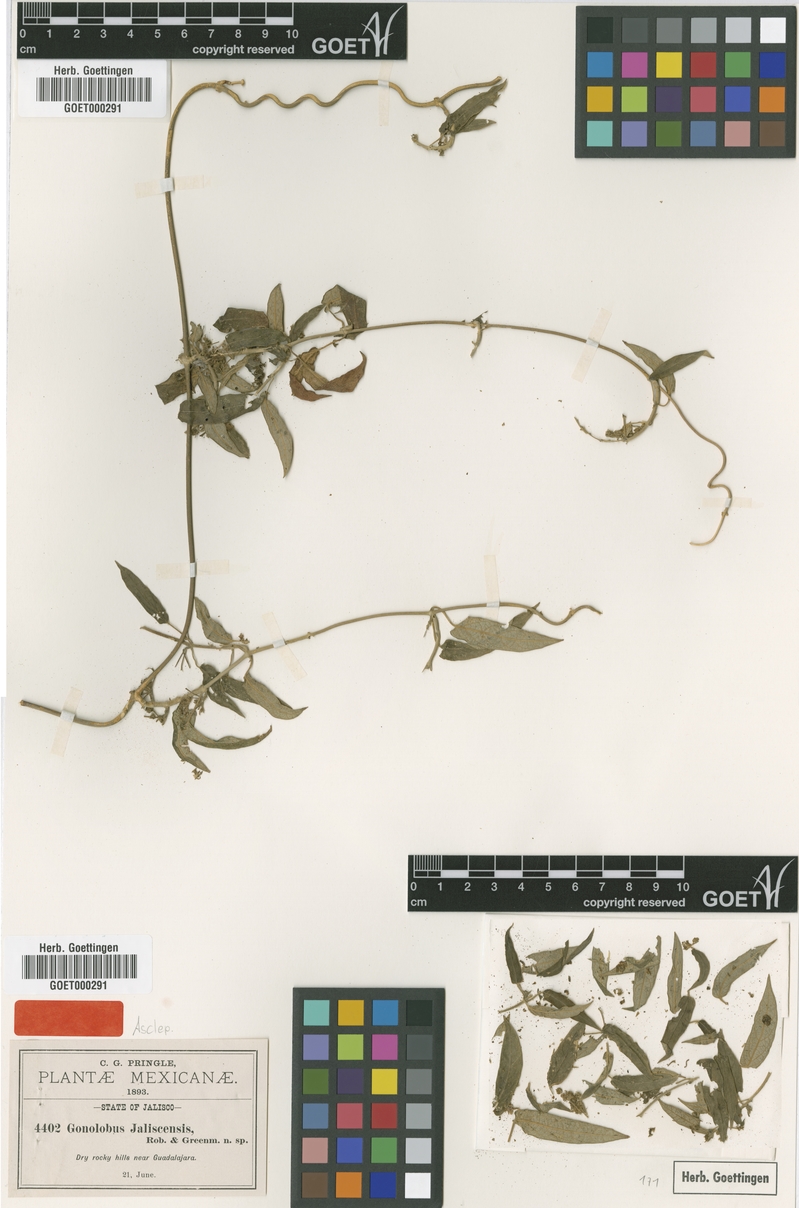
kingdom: Plantae
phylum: Tracheophyta
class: Magnoliopsida
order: Gentianales
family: Apocynaceae
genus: Gonolobus
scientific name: Gonolobus jaliscensis
